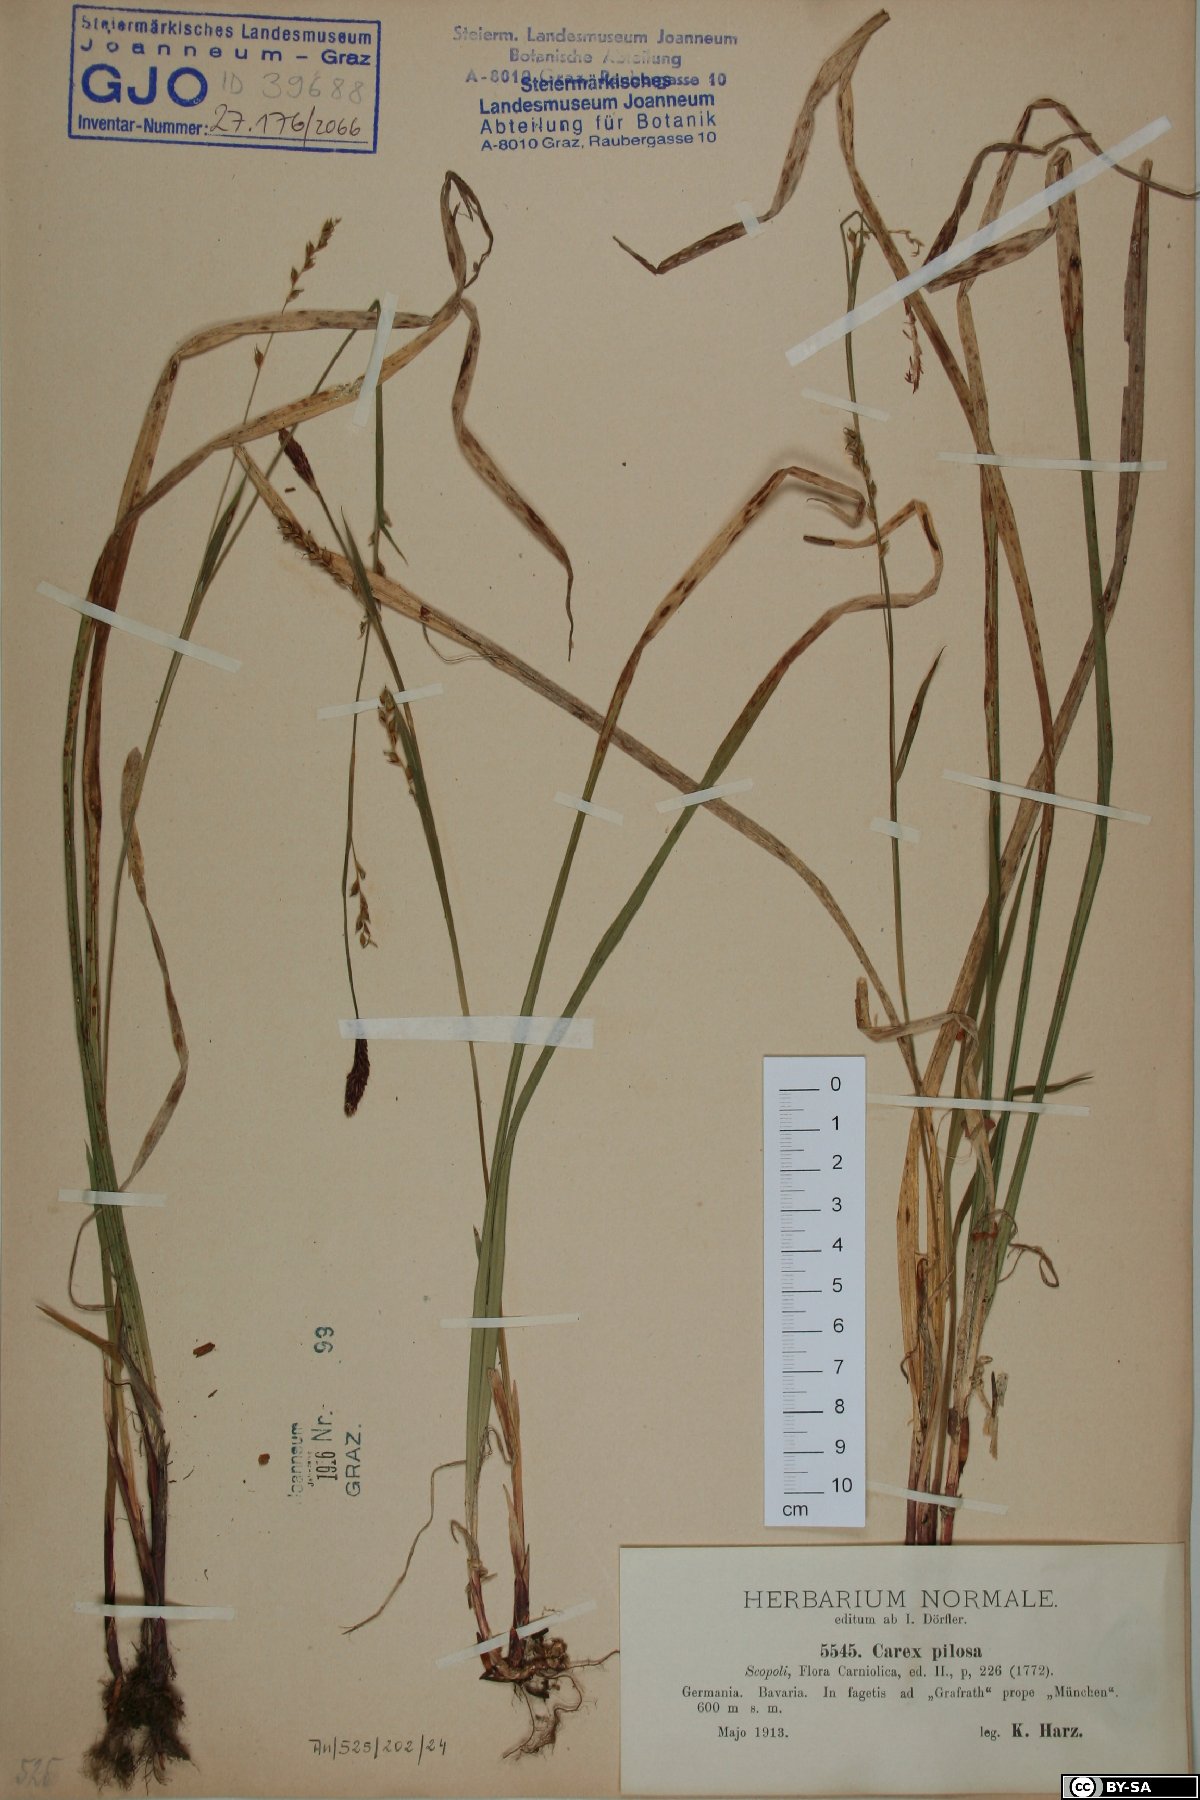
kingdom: Plantae
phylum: Tracheophyta
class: Liliopsida
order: Poales
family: Cyperaceae
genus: Carex
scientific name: Carex pilosa
